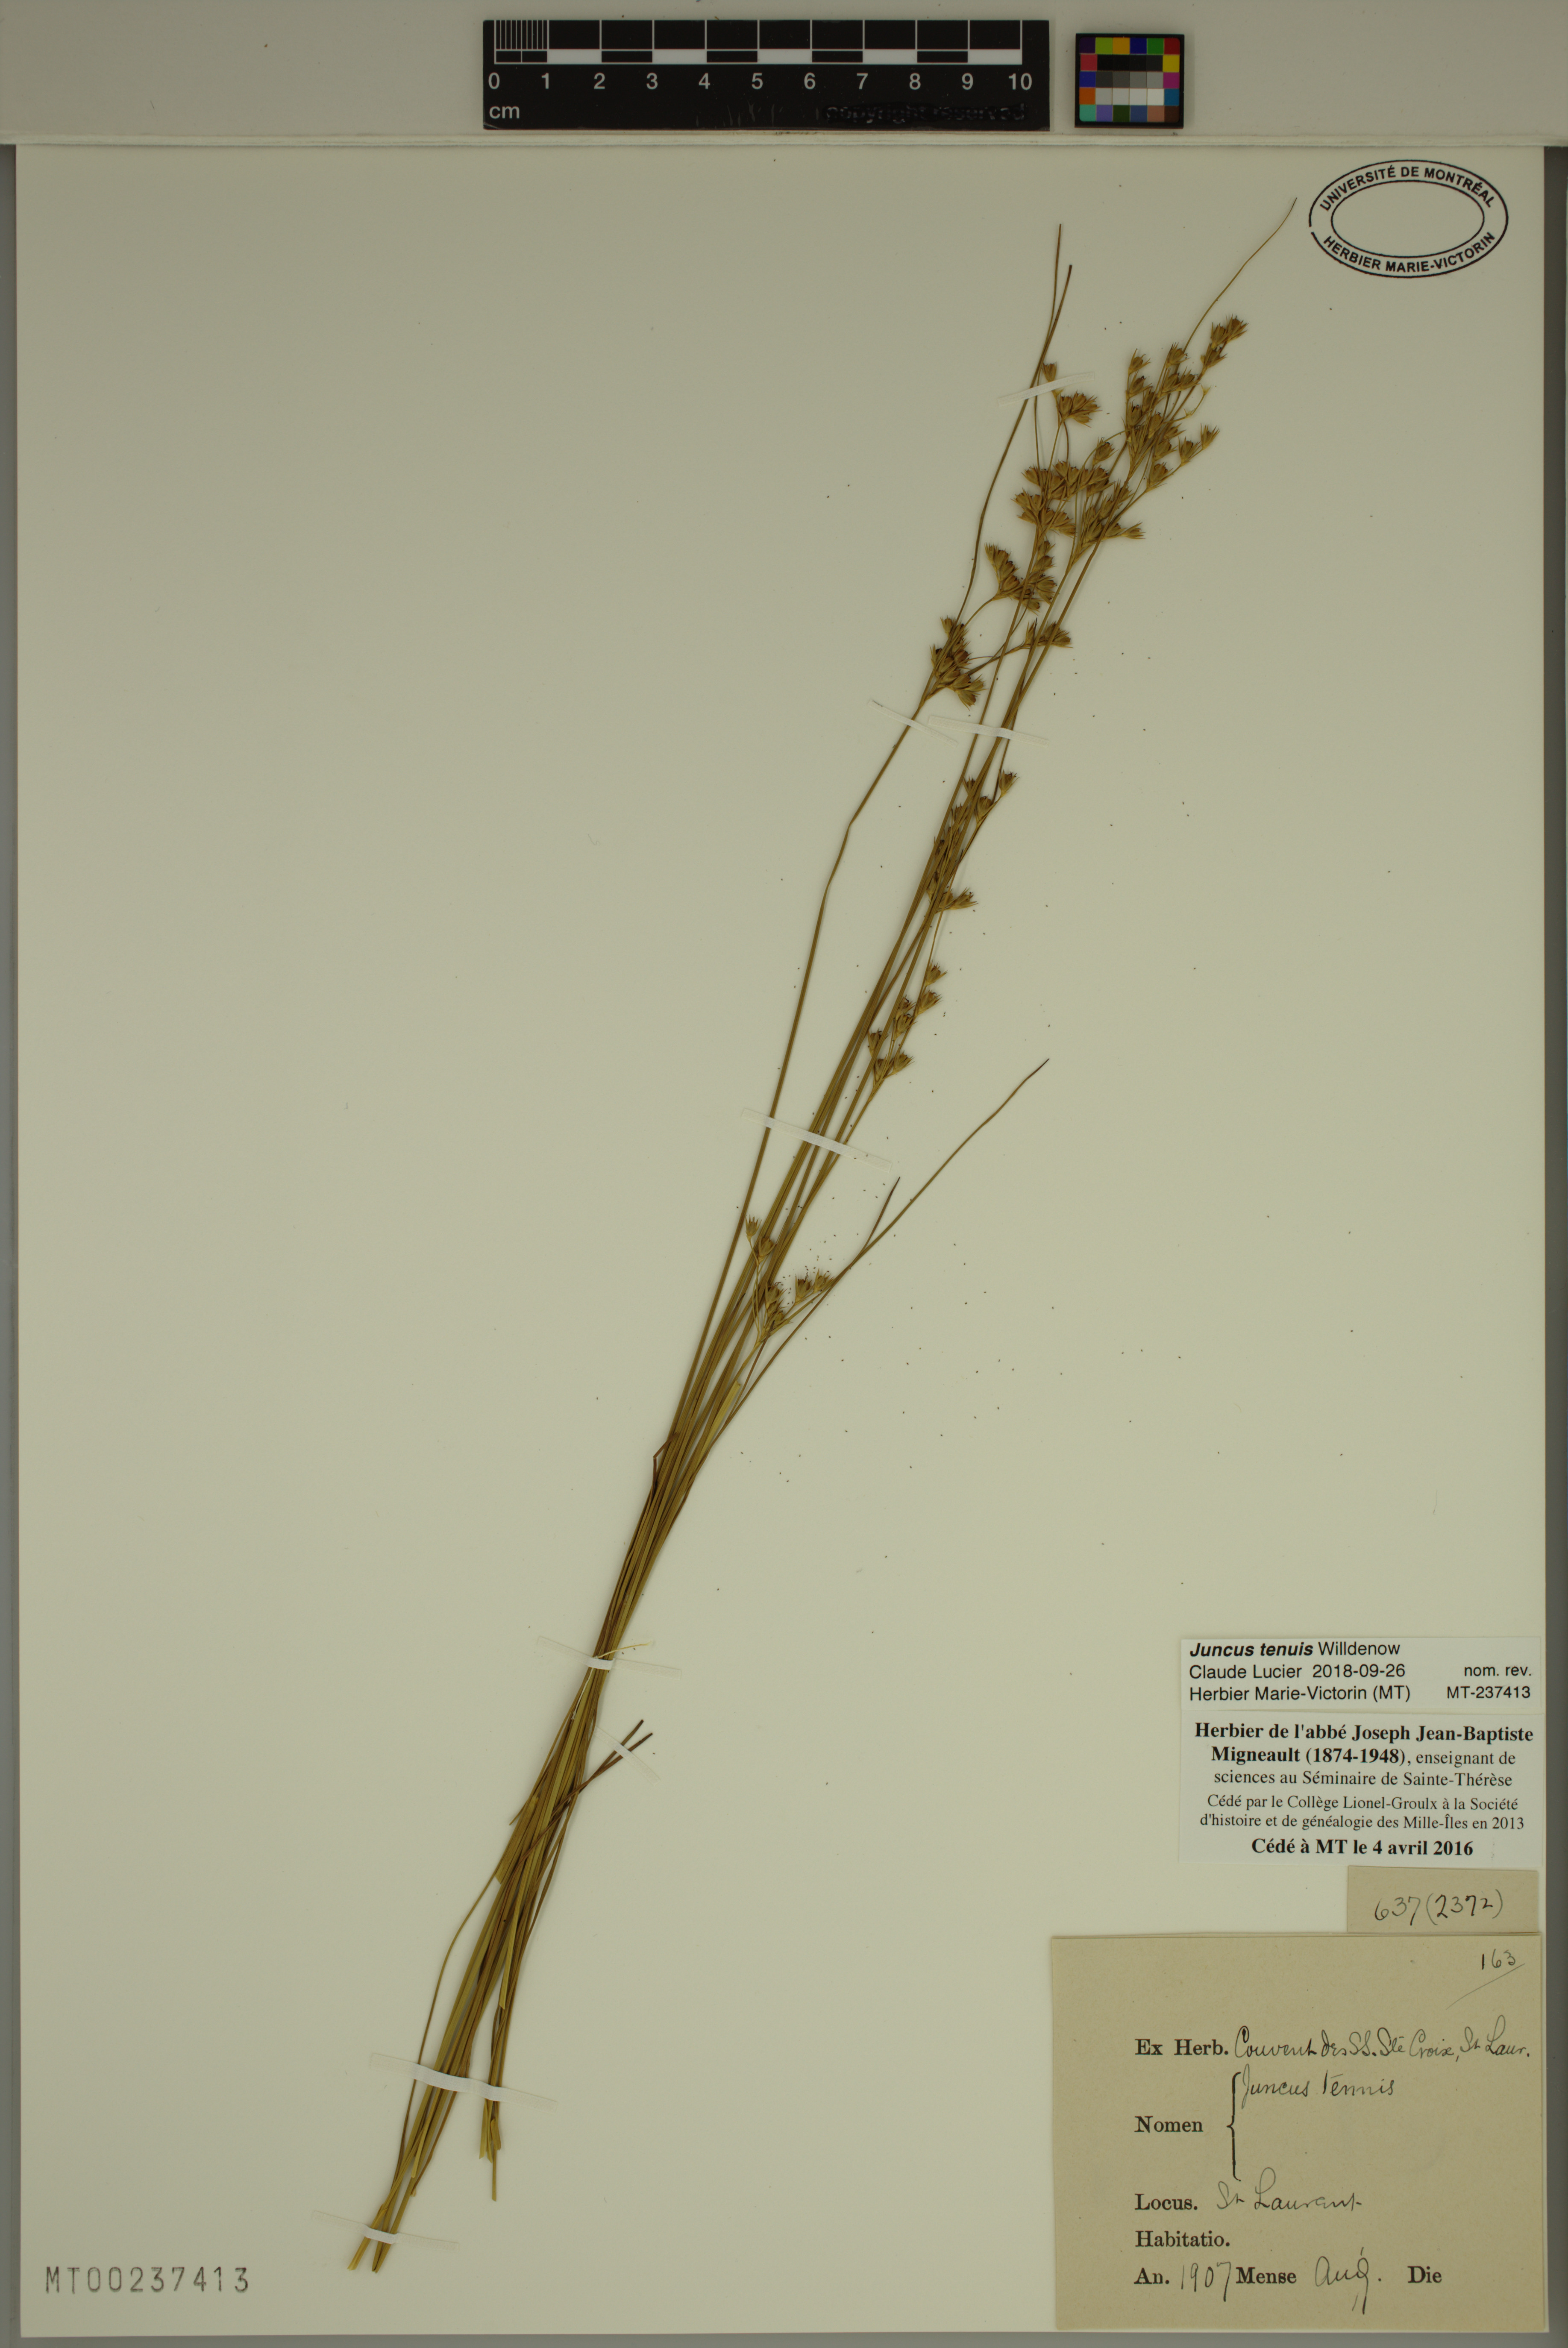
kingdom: Plantae
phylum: Tracheophyta
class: Liliopsida
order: Poales
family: Juncaceae
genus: Juncus
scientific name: Juncus tenuis
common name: Slender rush
